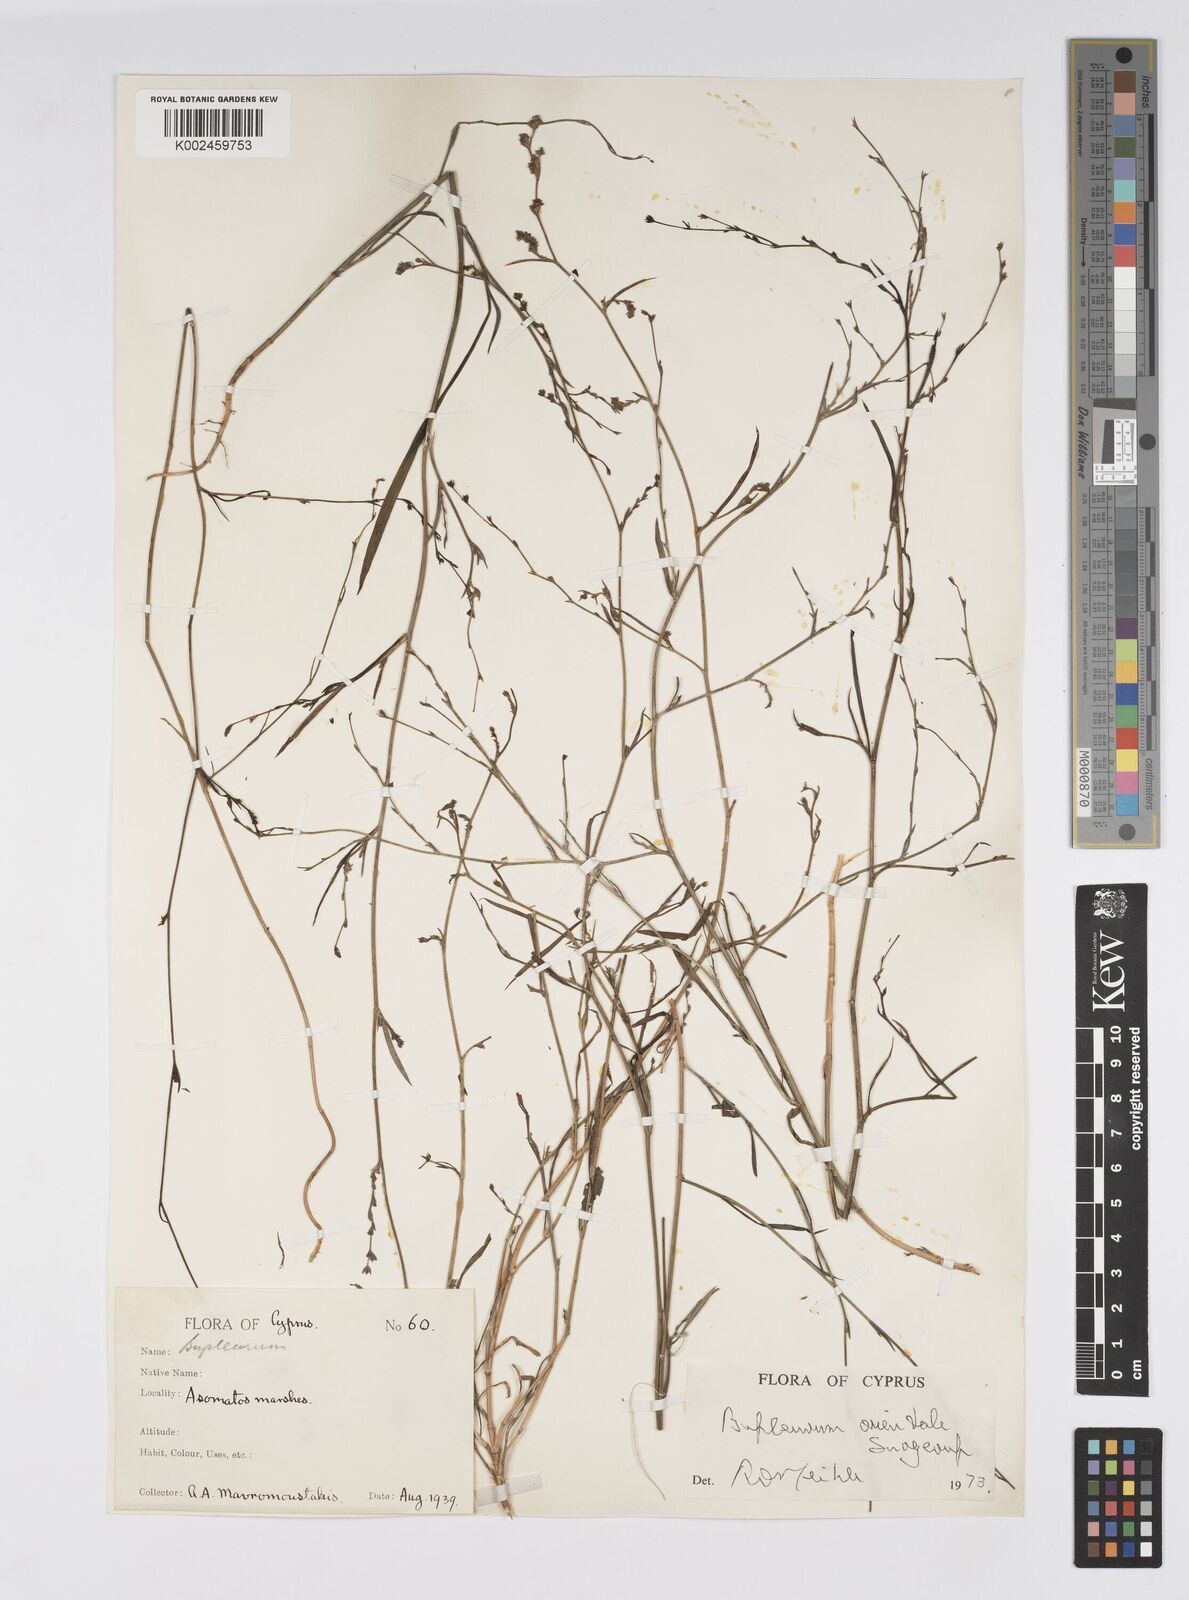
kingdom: Plantae
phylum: Tracheophyta
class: Magnoliopsida
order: Apiales
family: Apiaceae
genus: Bupleurum
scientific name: Bupleurum orientale
